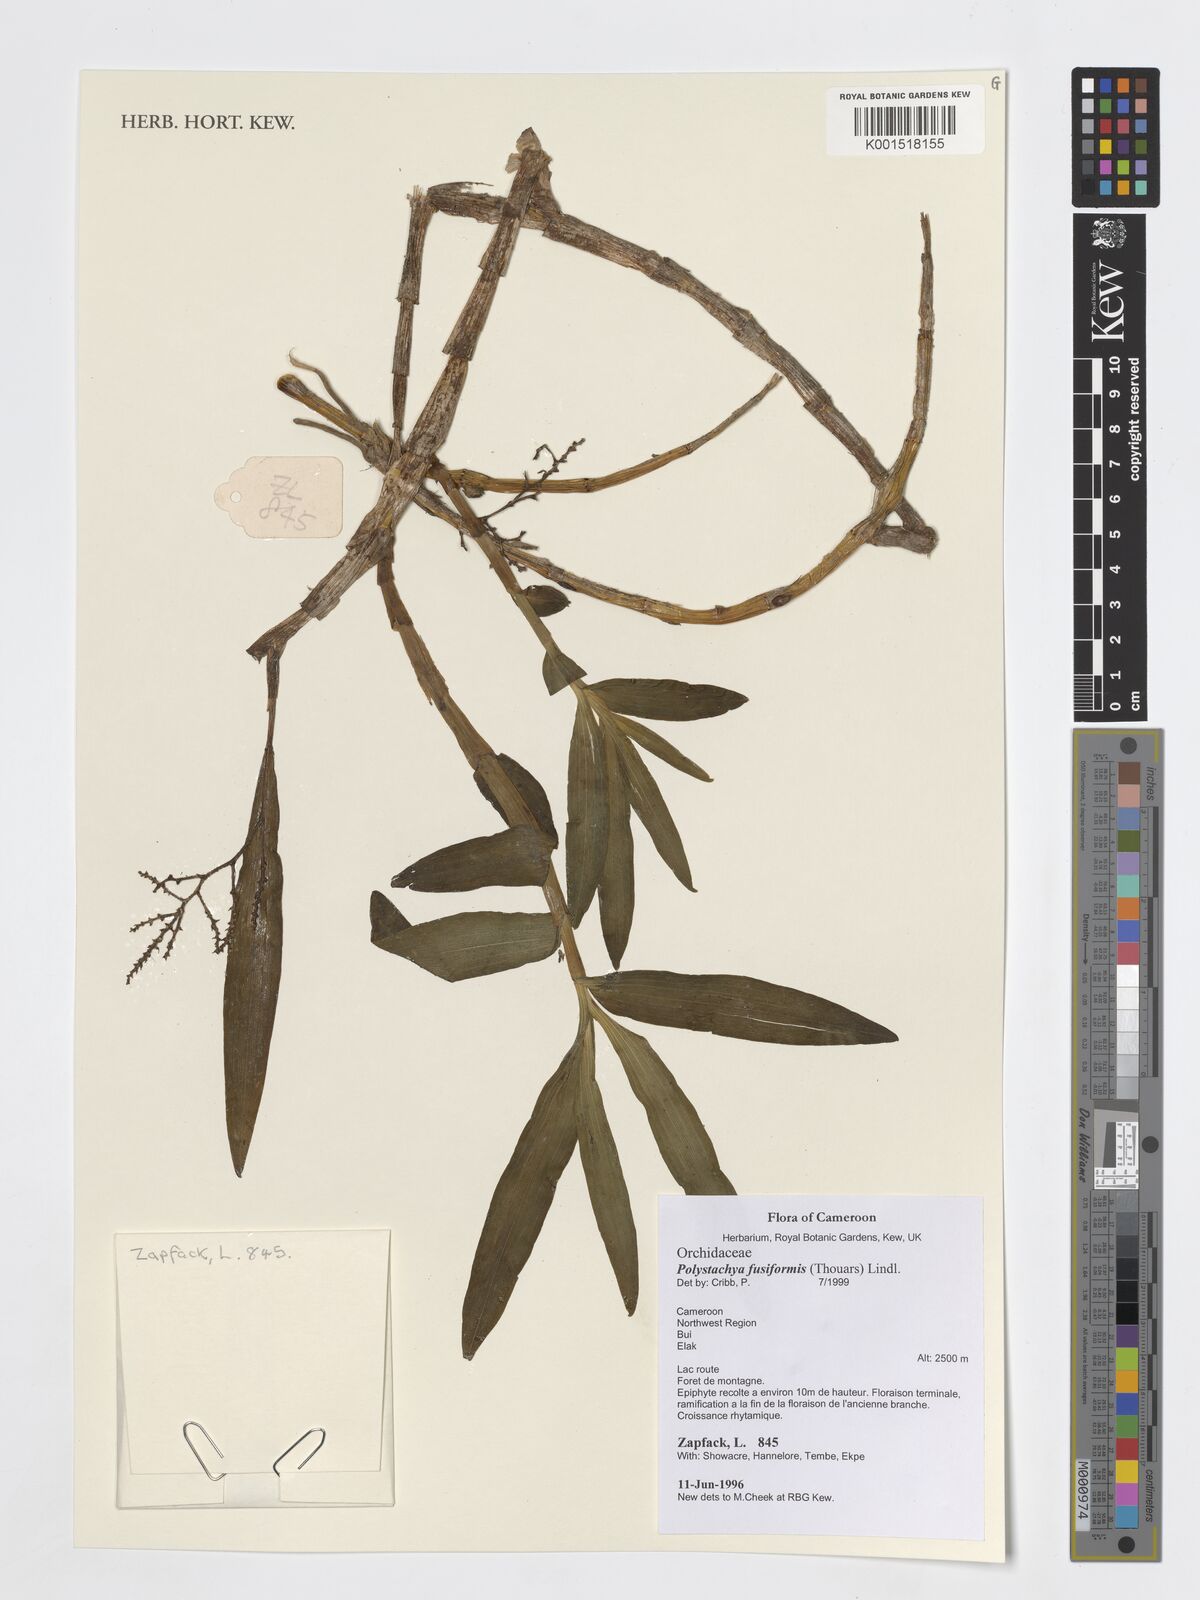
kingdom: Plantae
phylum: Tracheophyta
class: Liliopsida
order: Asparagales
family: Orchidaceae
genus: Polystachya
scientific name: Polystachya fusiformis
